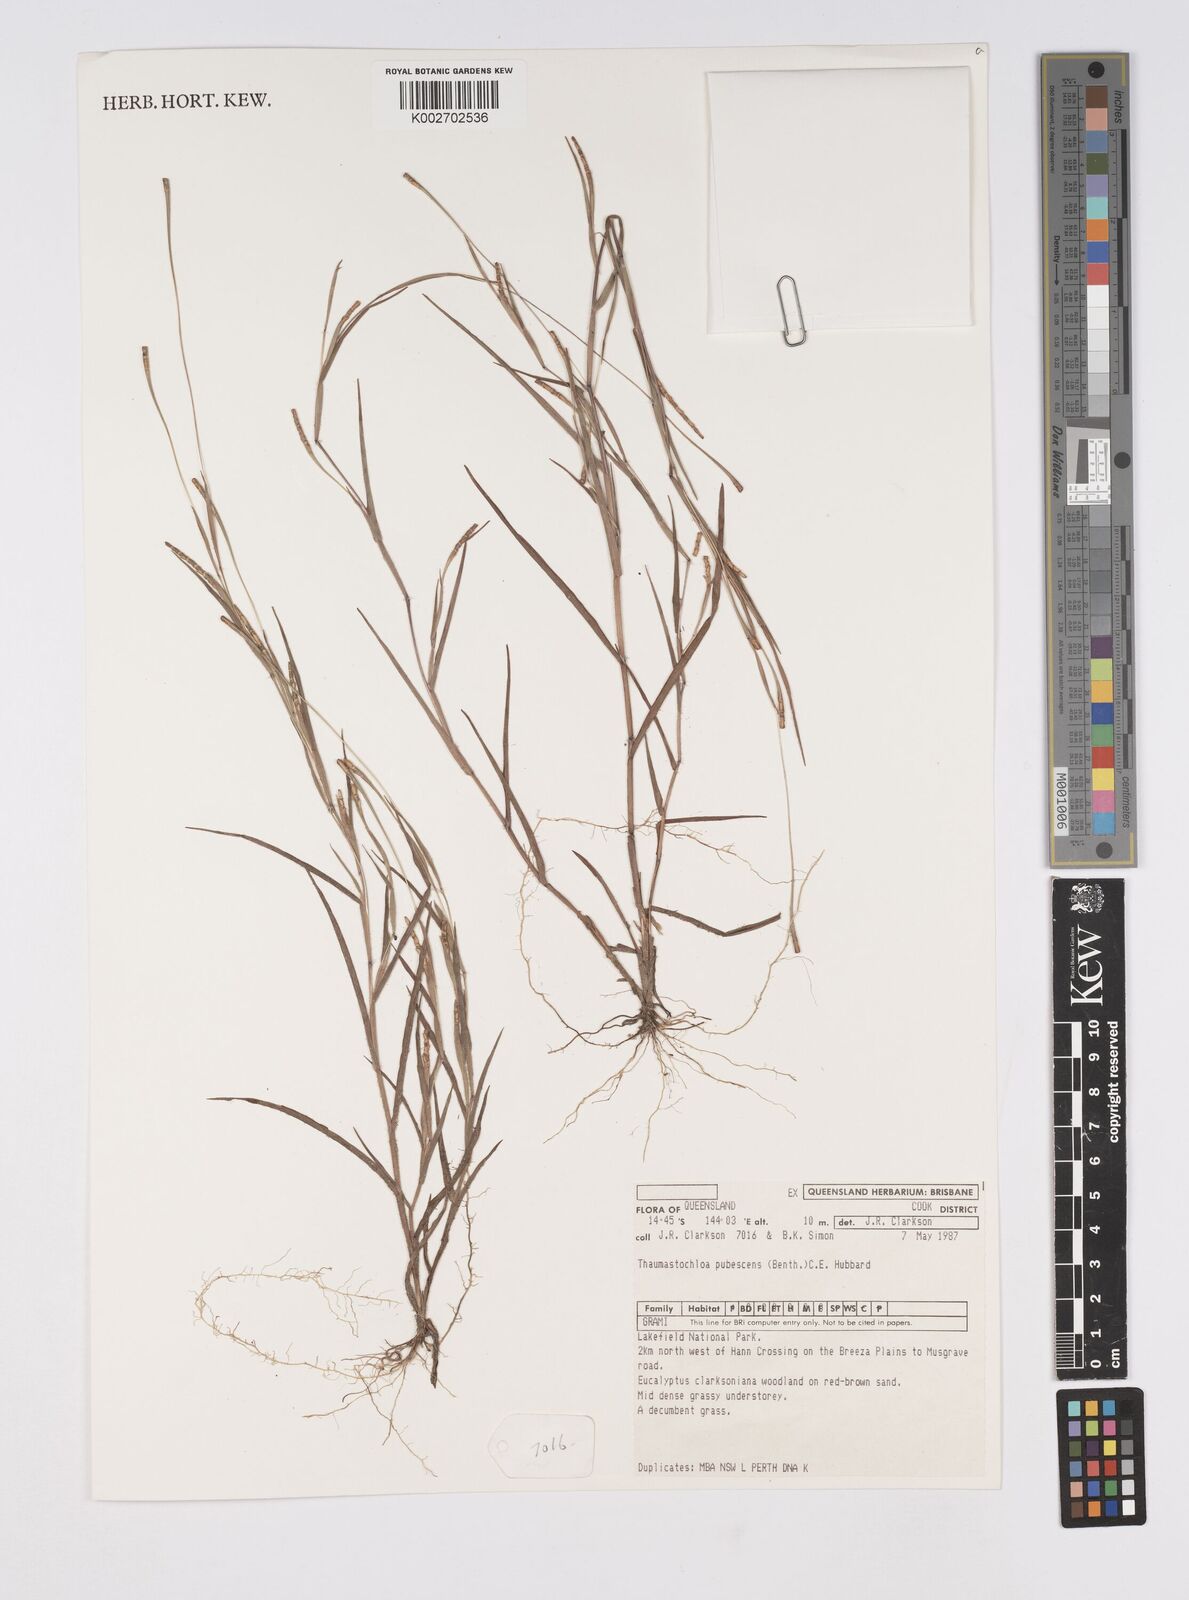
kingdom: Plantae
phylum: Tracheophyta
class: Liliopsida
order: Poales
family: Poaceae
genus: Thaumastochloa
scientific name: Thaumastochloa pubescens
